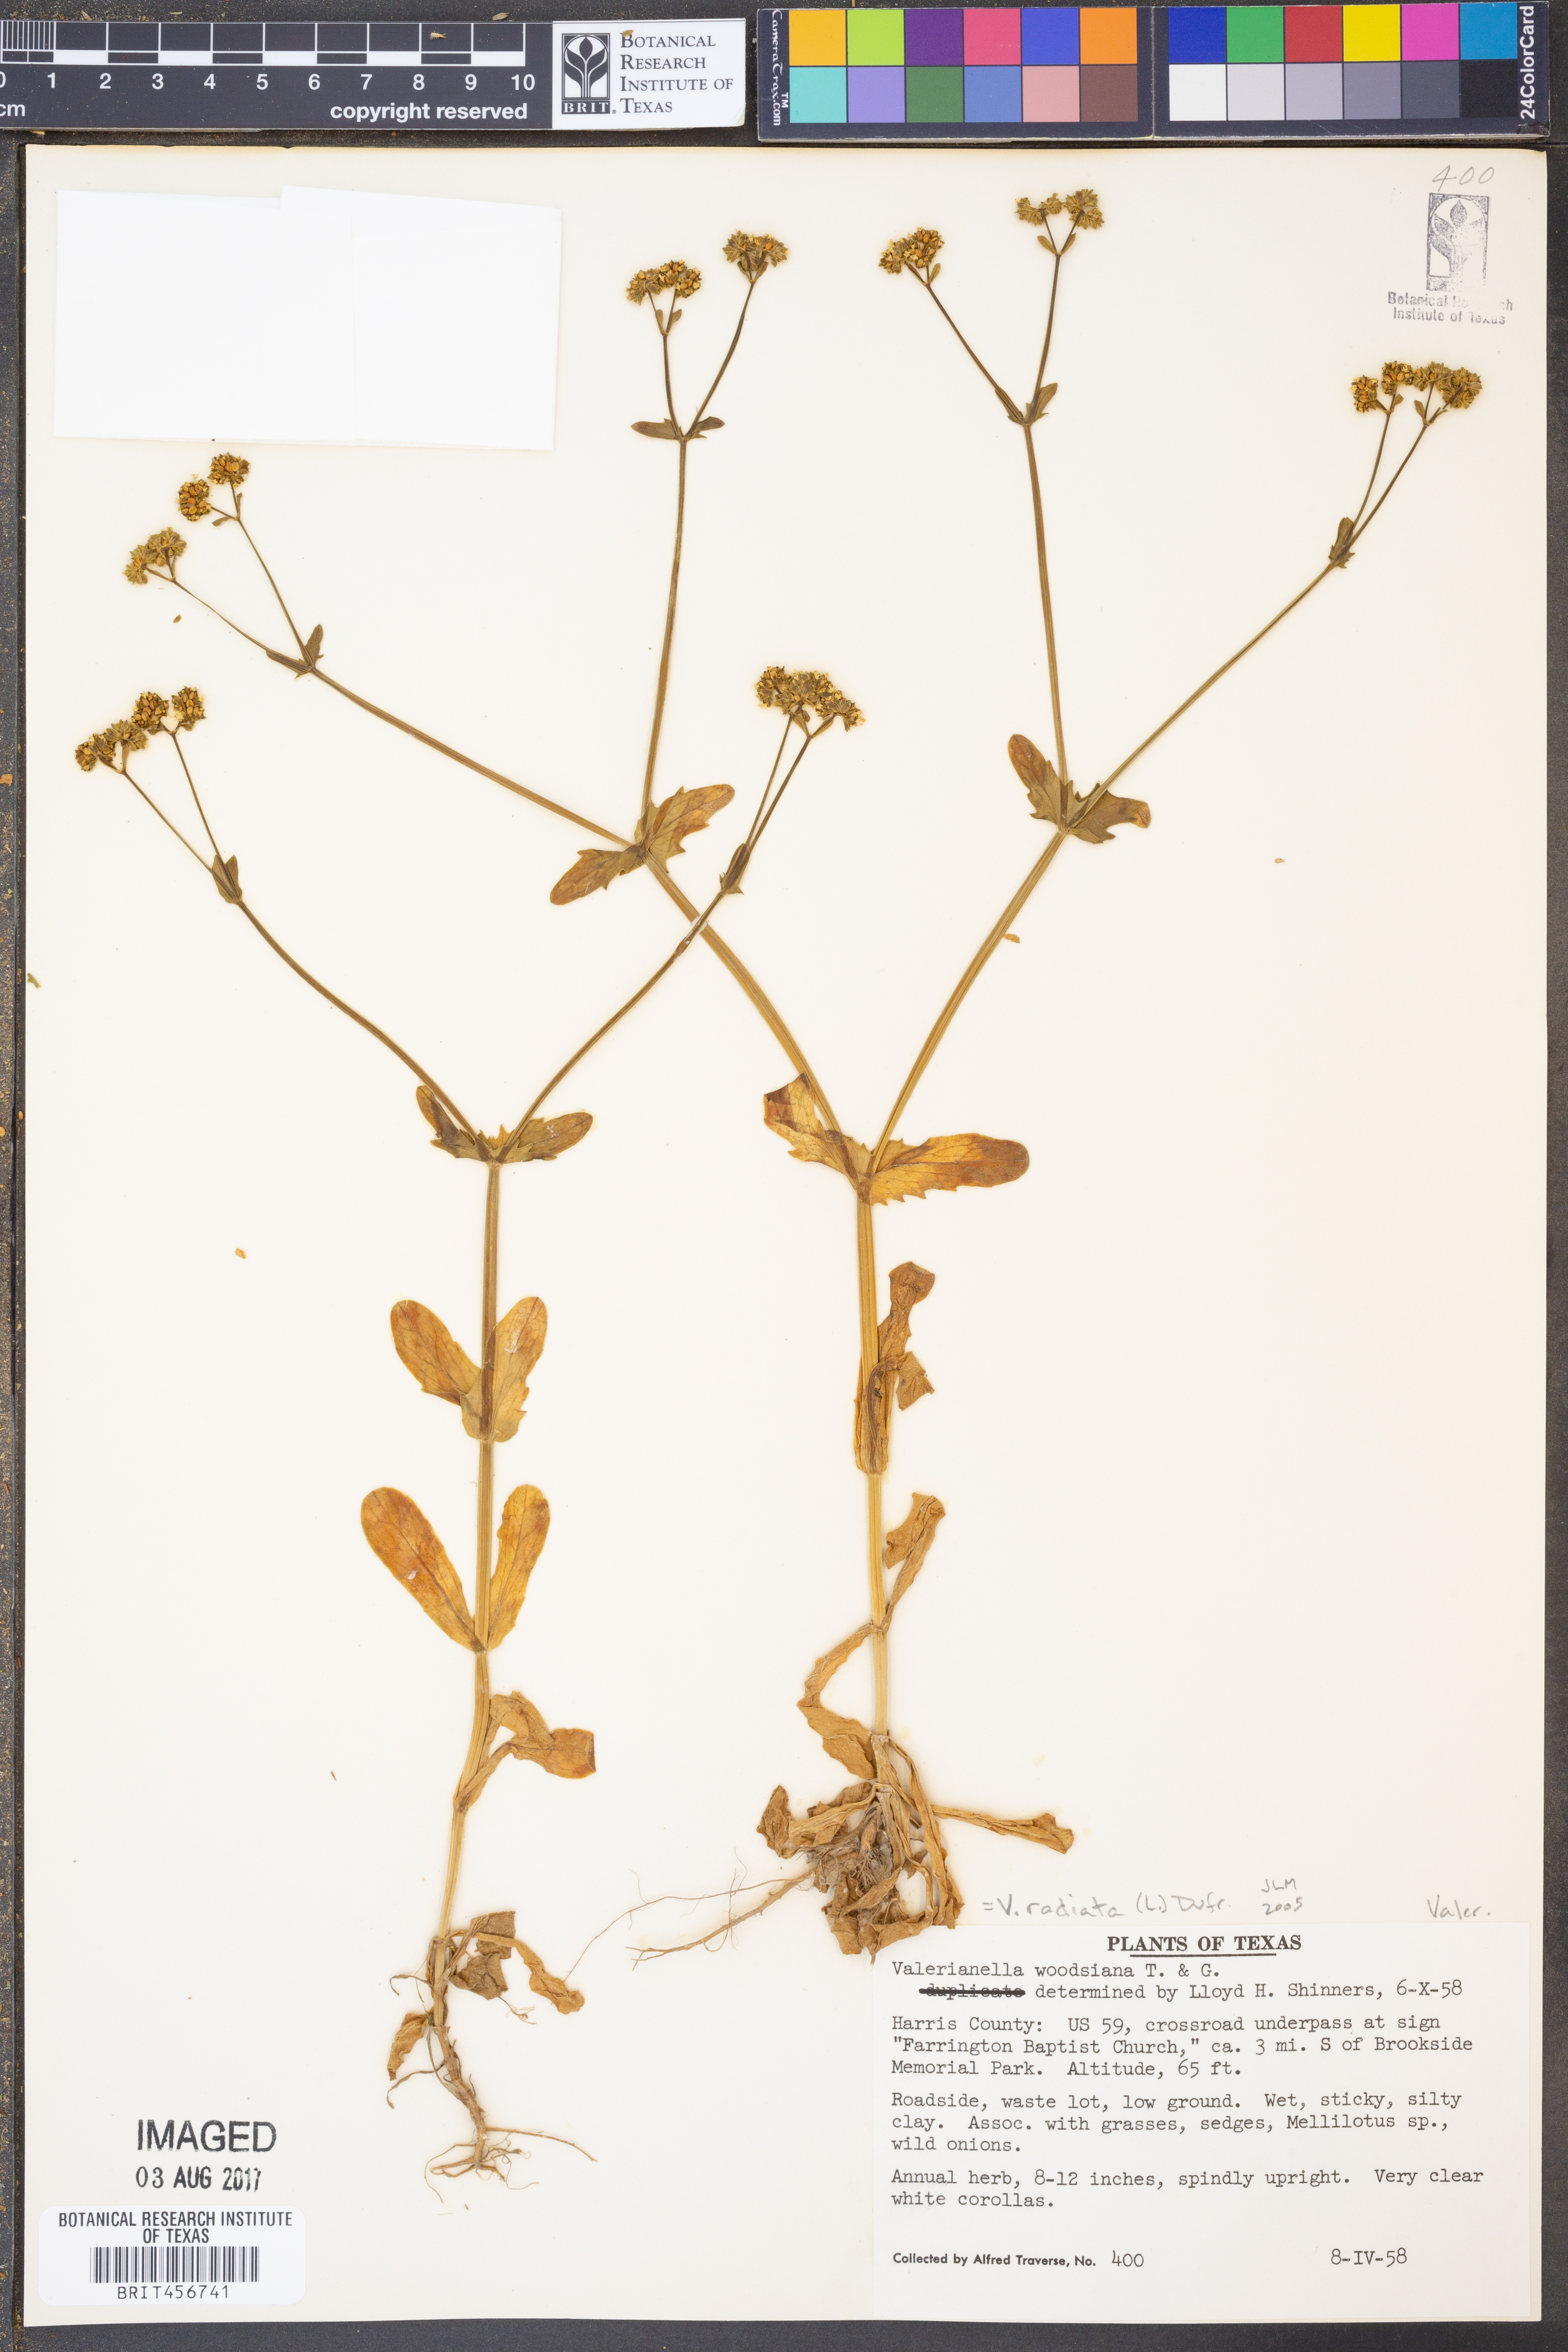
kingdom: Plantae
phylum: Tracheophyta
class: Magnoliopsida
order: Dipsacales
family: Caprifoliaceae
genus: Valerianella
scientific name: Valerianella radiata
